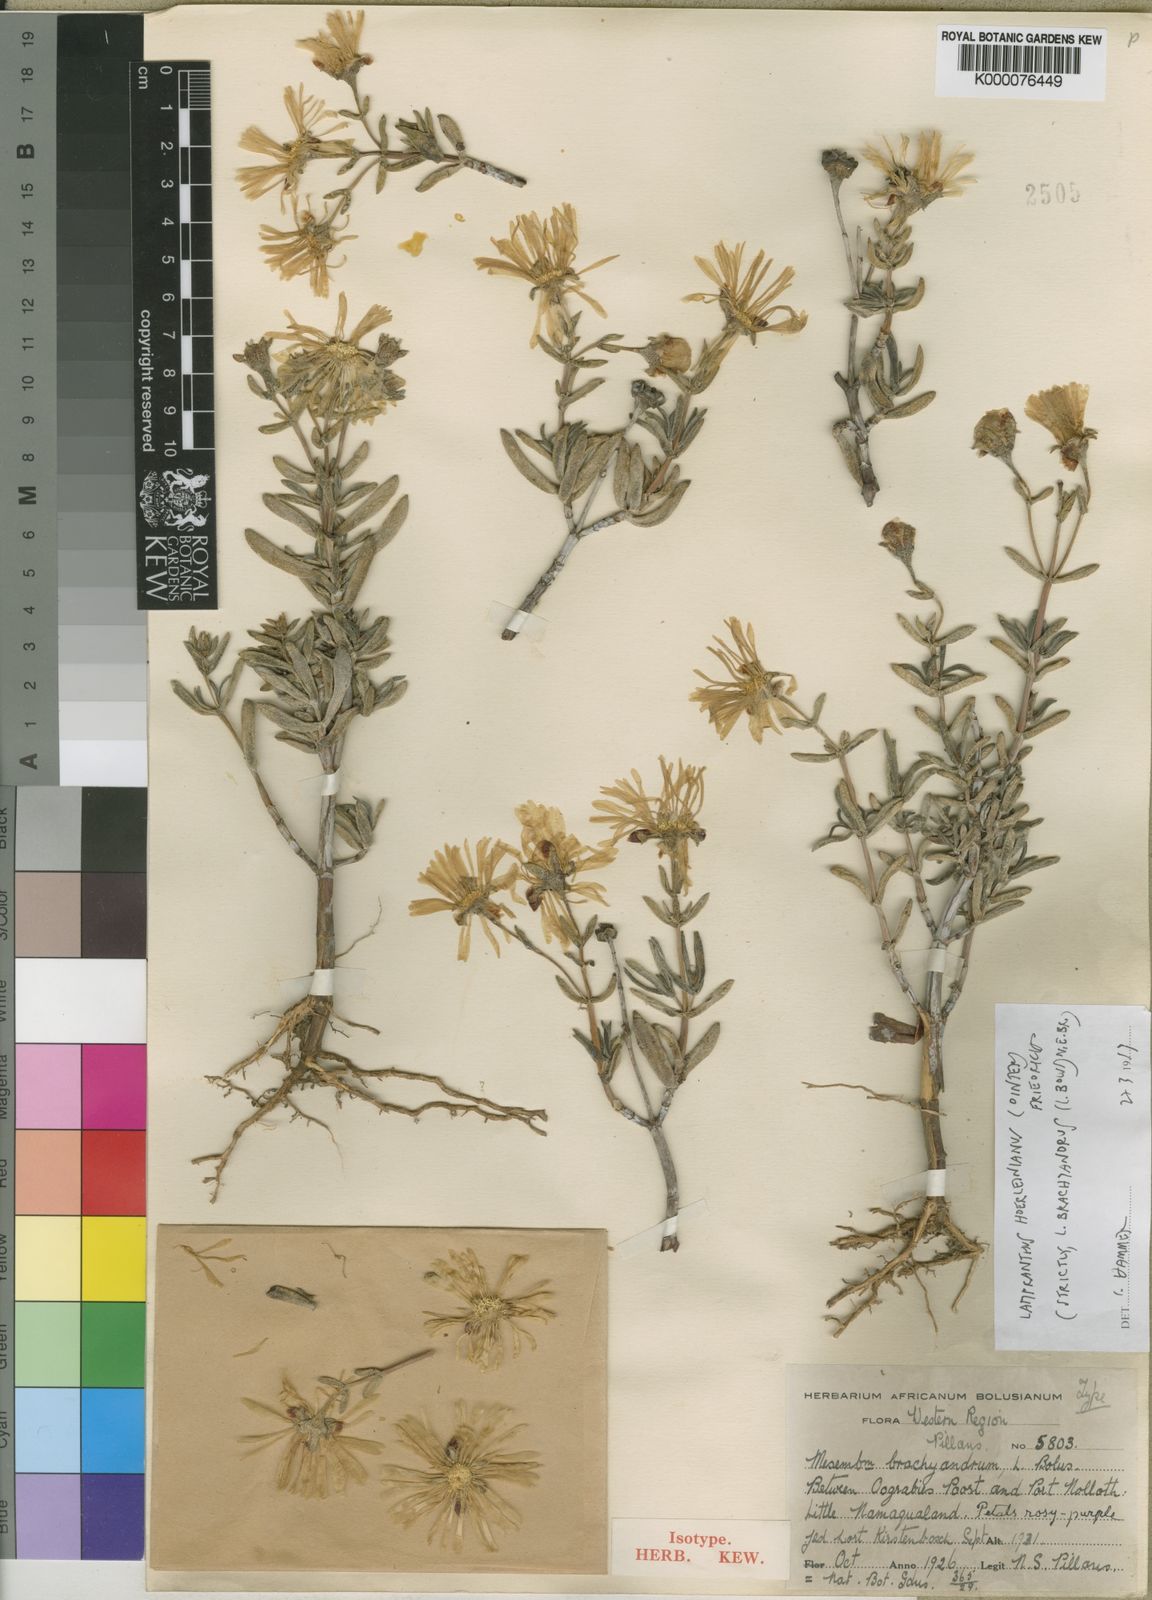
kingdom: Plantae
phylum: Tracheophyta
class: Magnoliopsida
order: Caryophyllales
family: Aizoaceae
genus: Lampranthus
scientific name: Lampranthus hoerleinianus
